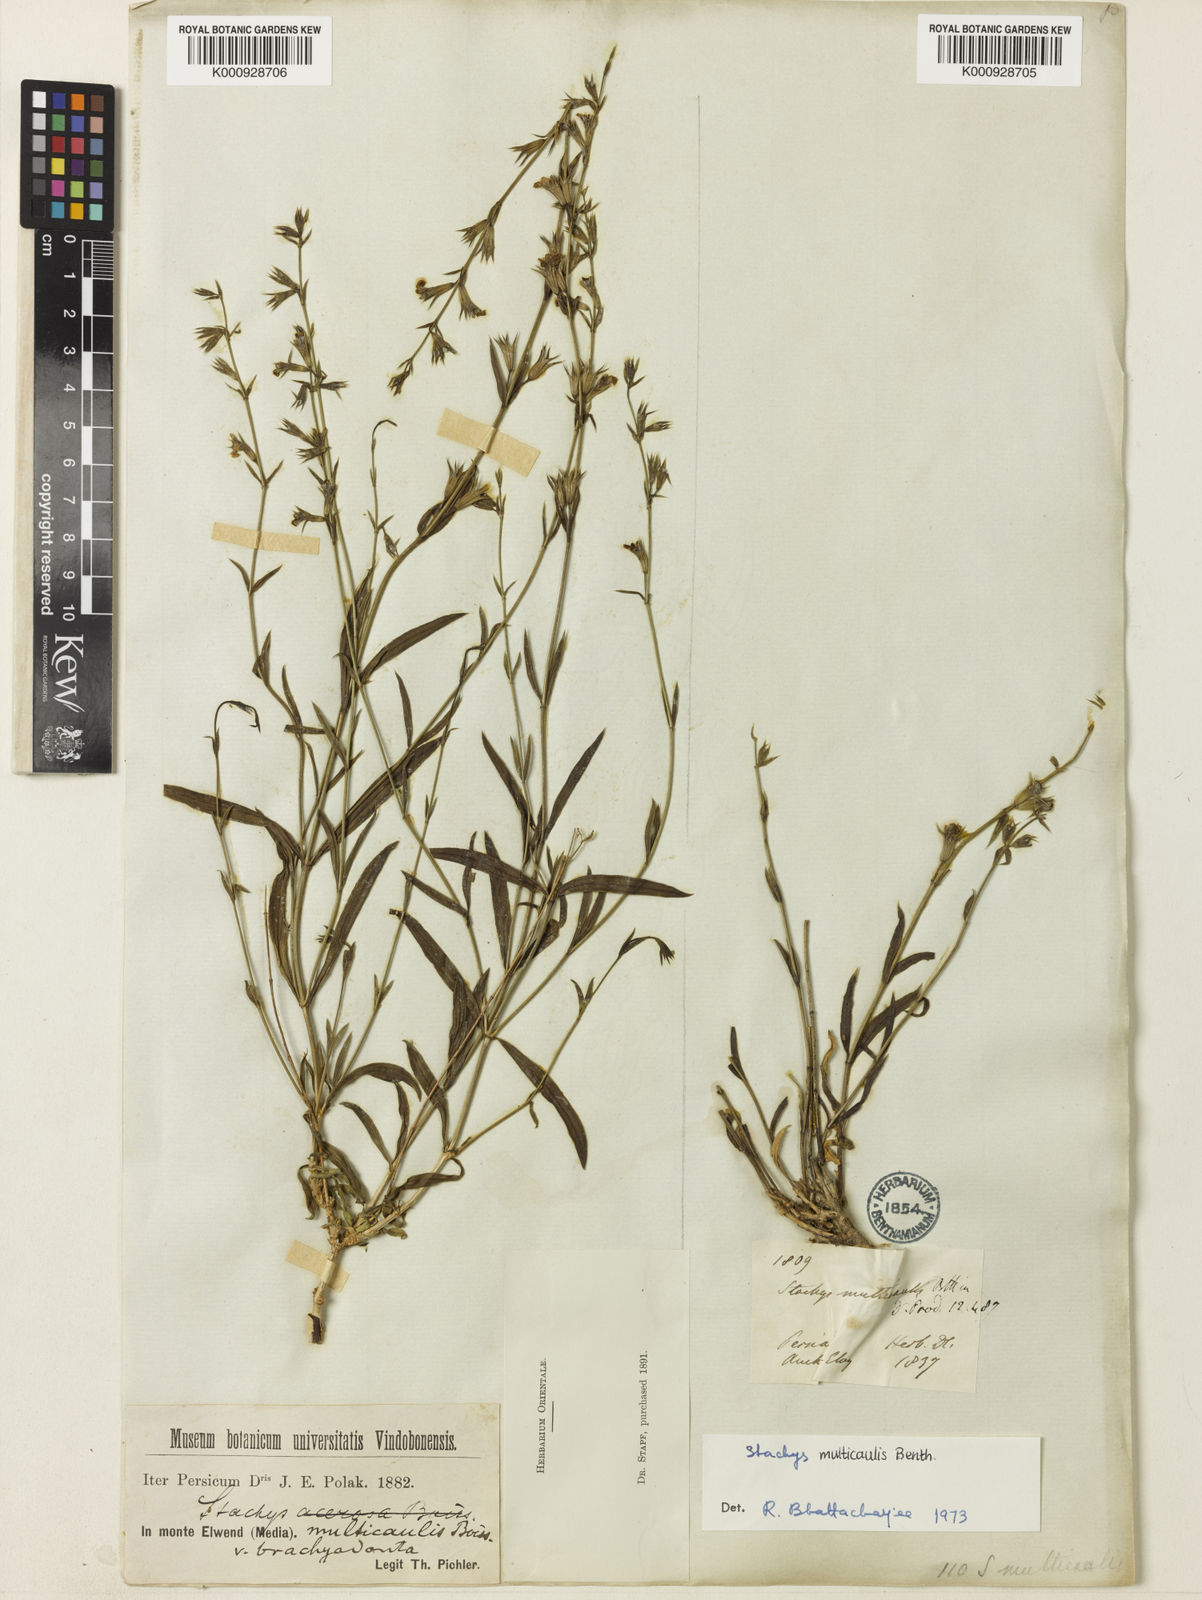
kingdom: Plantae
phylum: Tracheophyta
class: Magnoliopsida
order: Lamiales
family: Lamiaceae
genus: Stachys
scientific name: Stachys multicaulis
